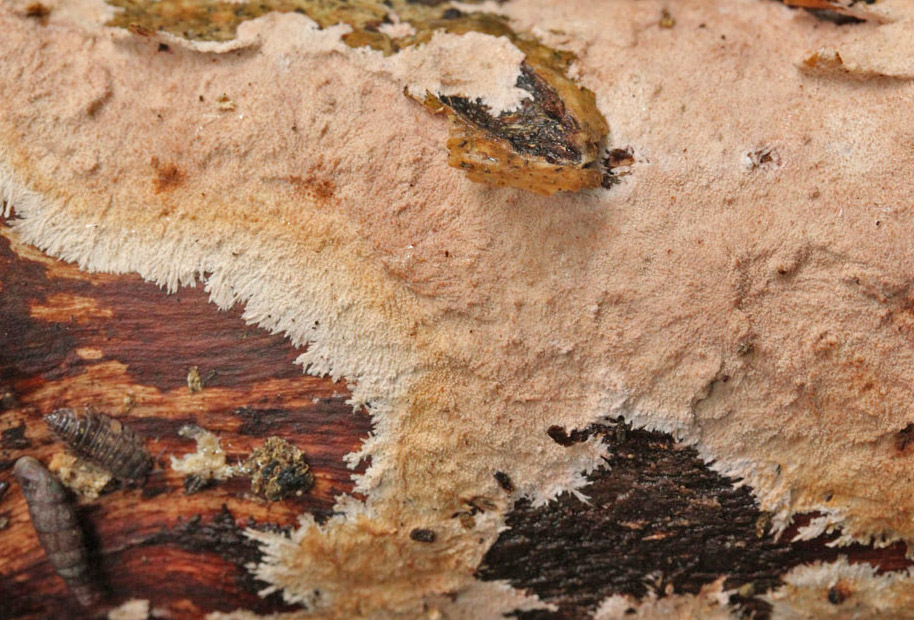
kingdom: Fungi
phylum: Basidiomycota
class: Agaricomycetes
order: Polyporales
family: Steccherinaceae
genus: Steccherinum
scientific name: Steccherinum fimbriatum
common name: trådet skønpig
